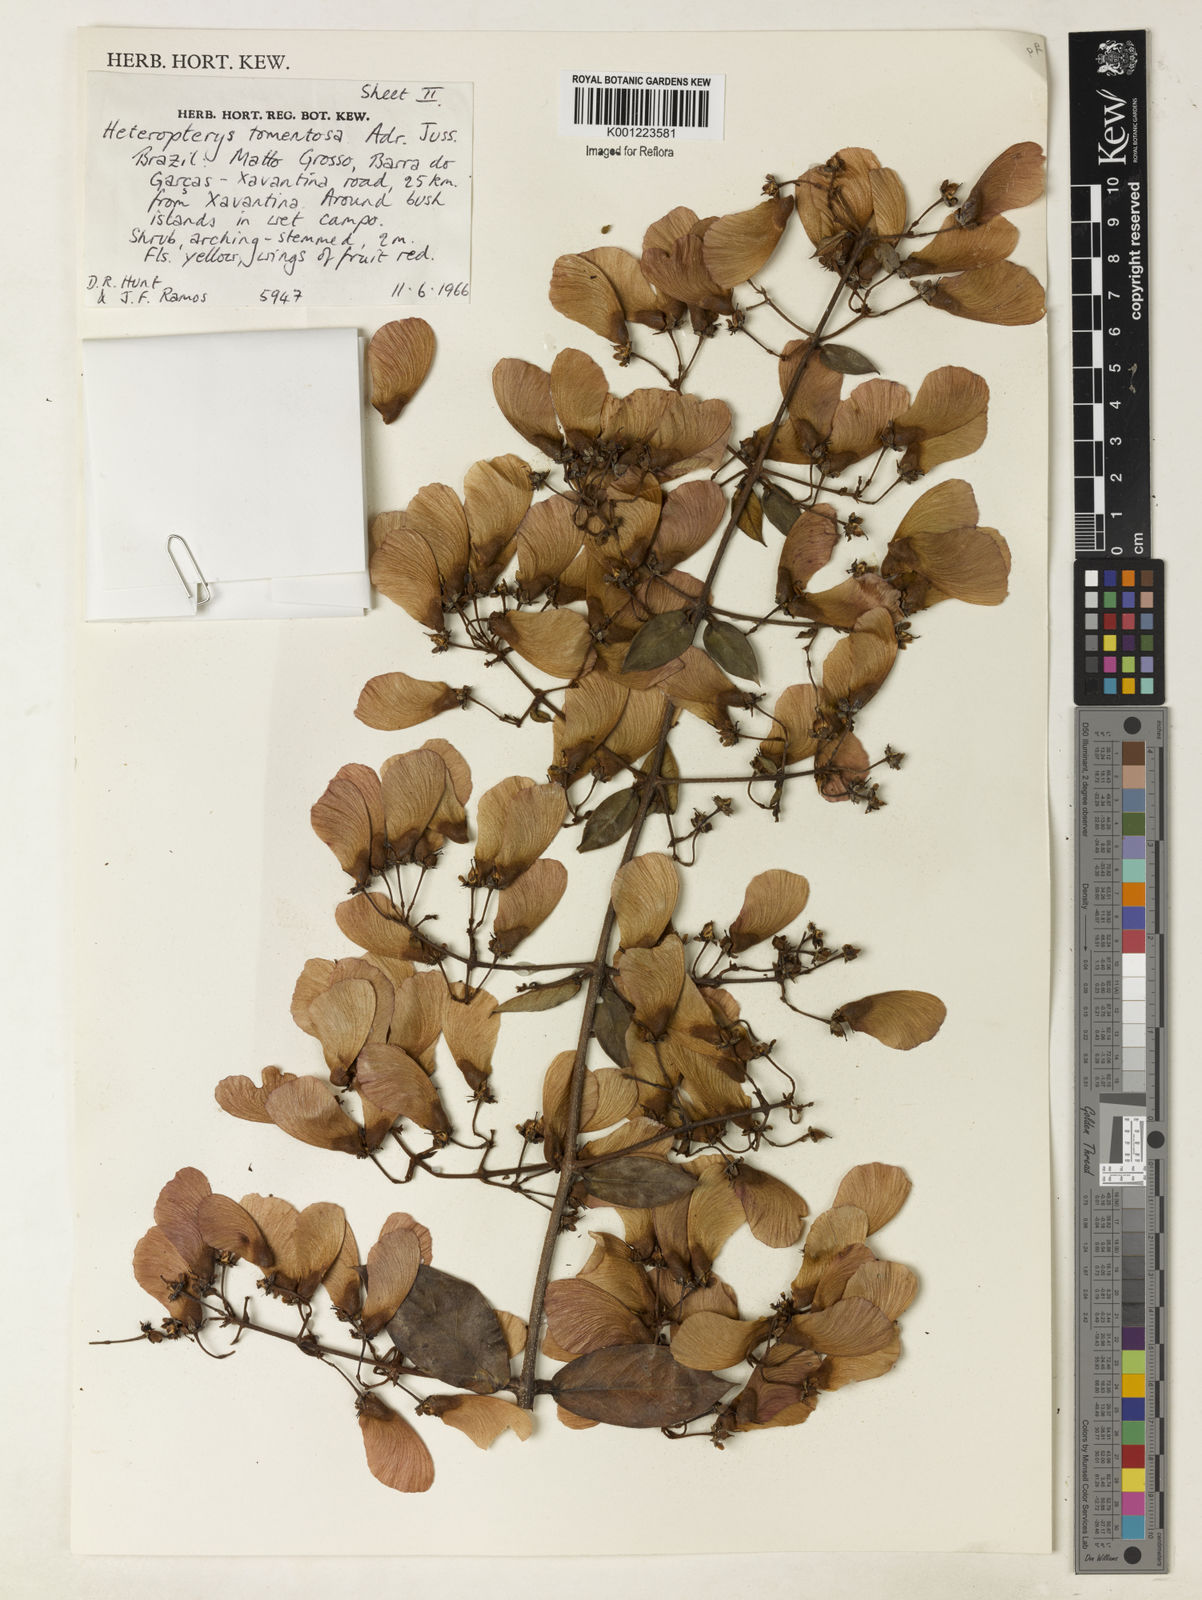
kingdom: Plantae
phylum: Tracheophyta
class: Magnoliopsida
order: Malpighiales
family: Malpighiaceae
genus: Heteropterys
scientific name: Heteropterys tomentosa
